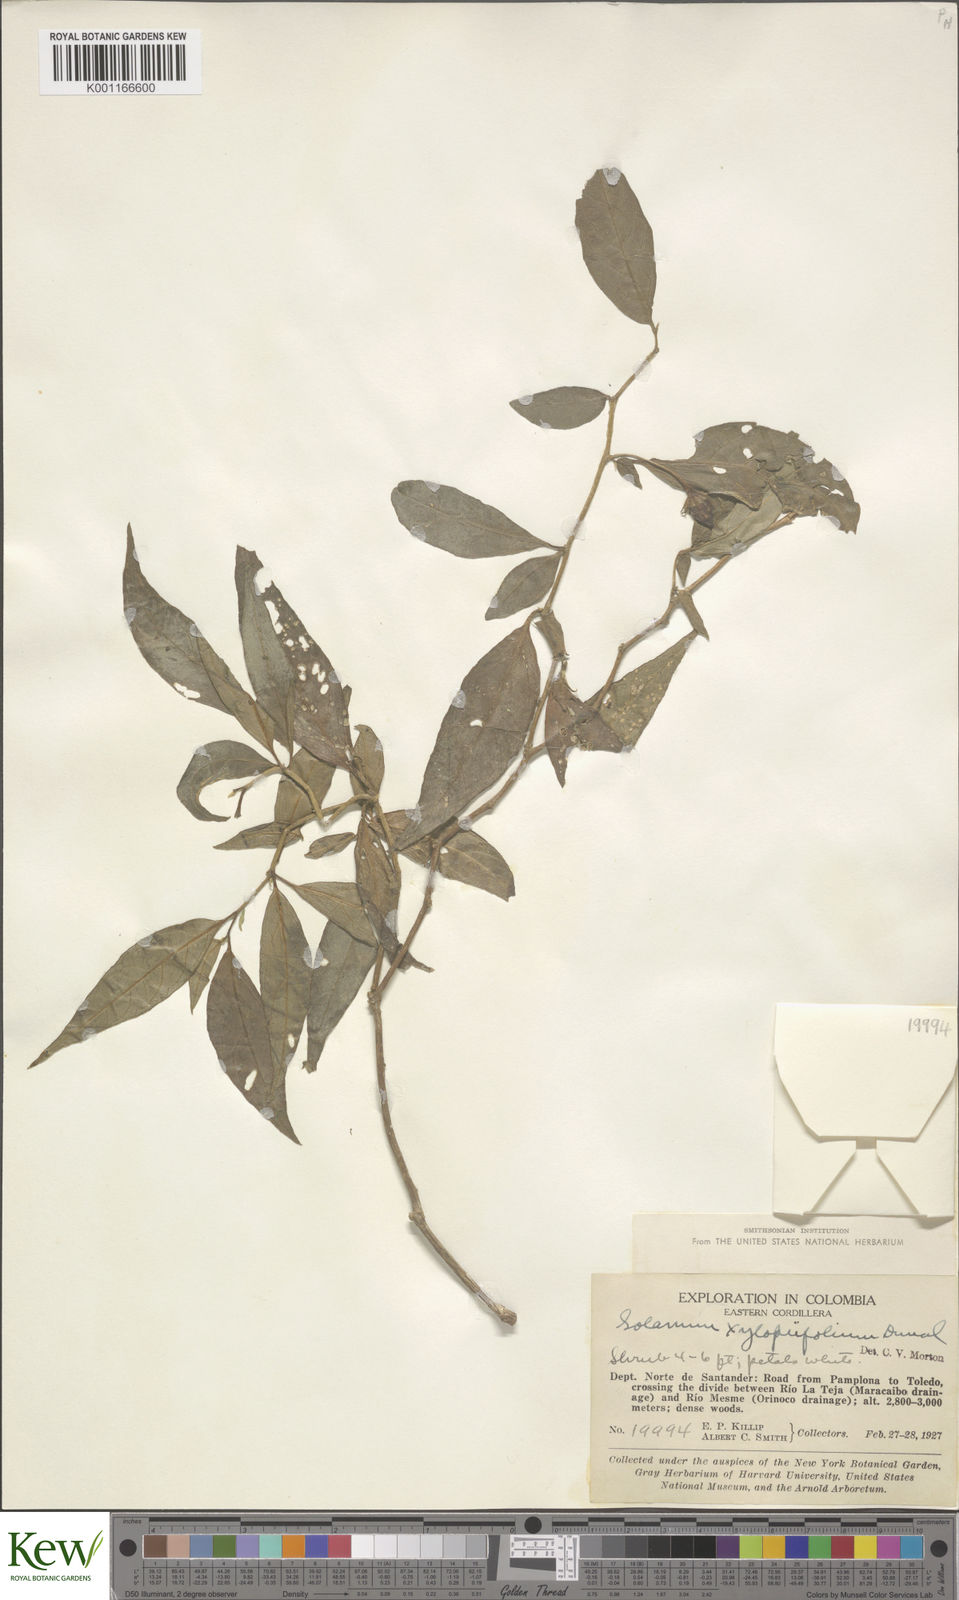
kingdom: Plantae
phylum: Tracheophyta
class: Magnoliopsida
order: Solanales
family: Solanaceae
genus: Lycianthes
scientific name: Lycianthes acutifolia
